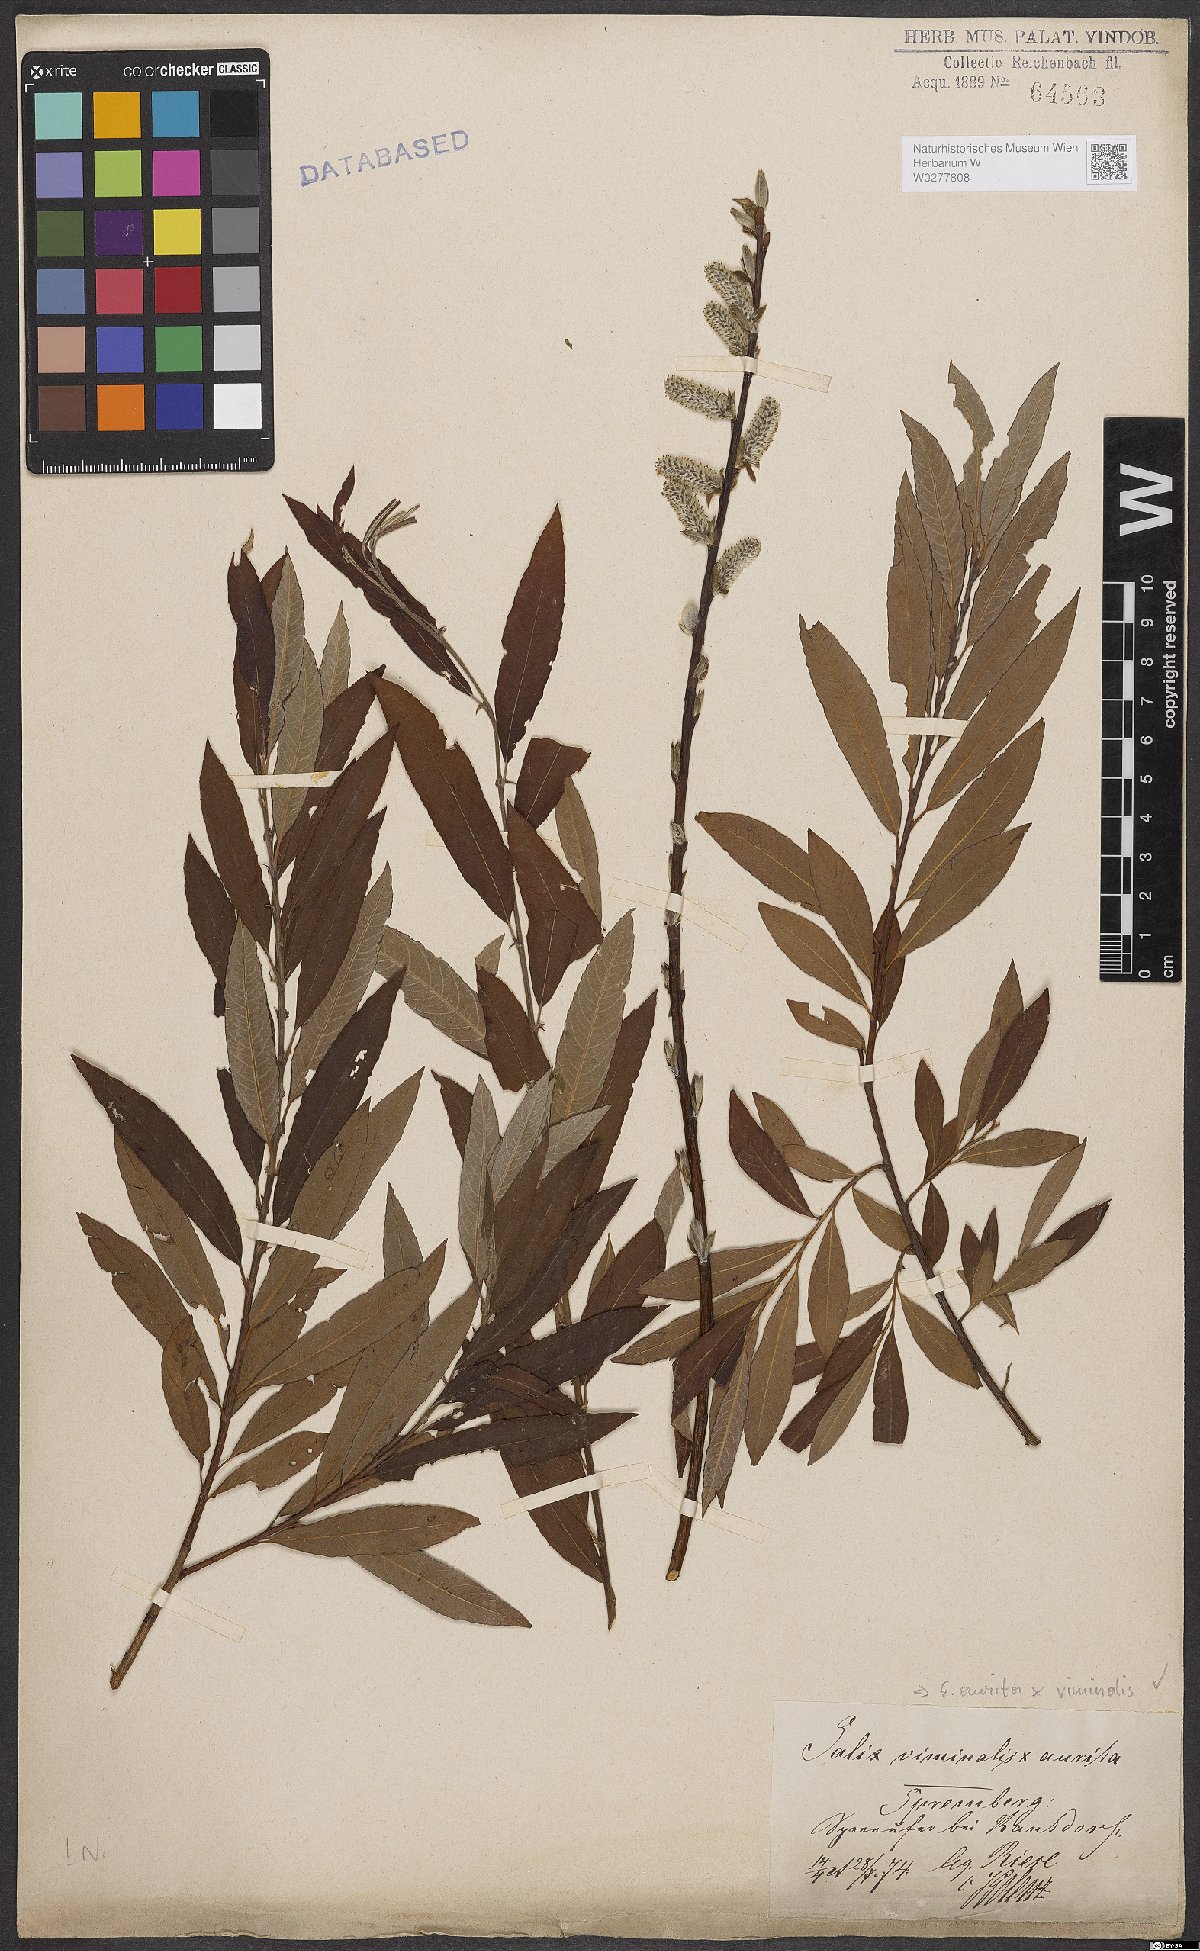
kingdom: Plantae
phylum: Tracheophyta
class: Magnoliopsida
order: Malpighiales
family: Salicaceae
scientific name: Salicaceae
